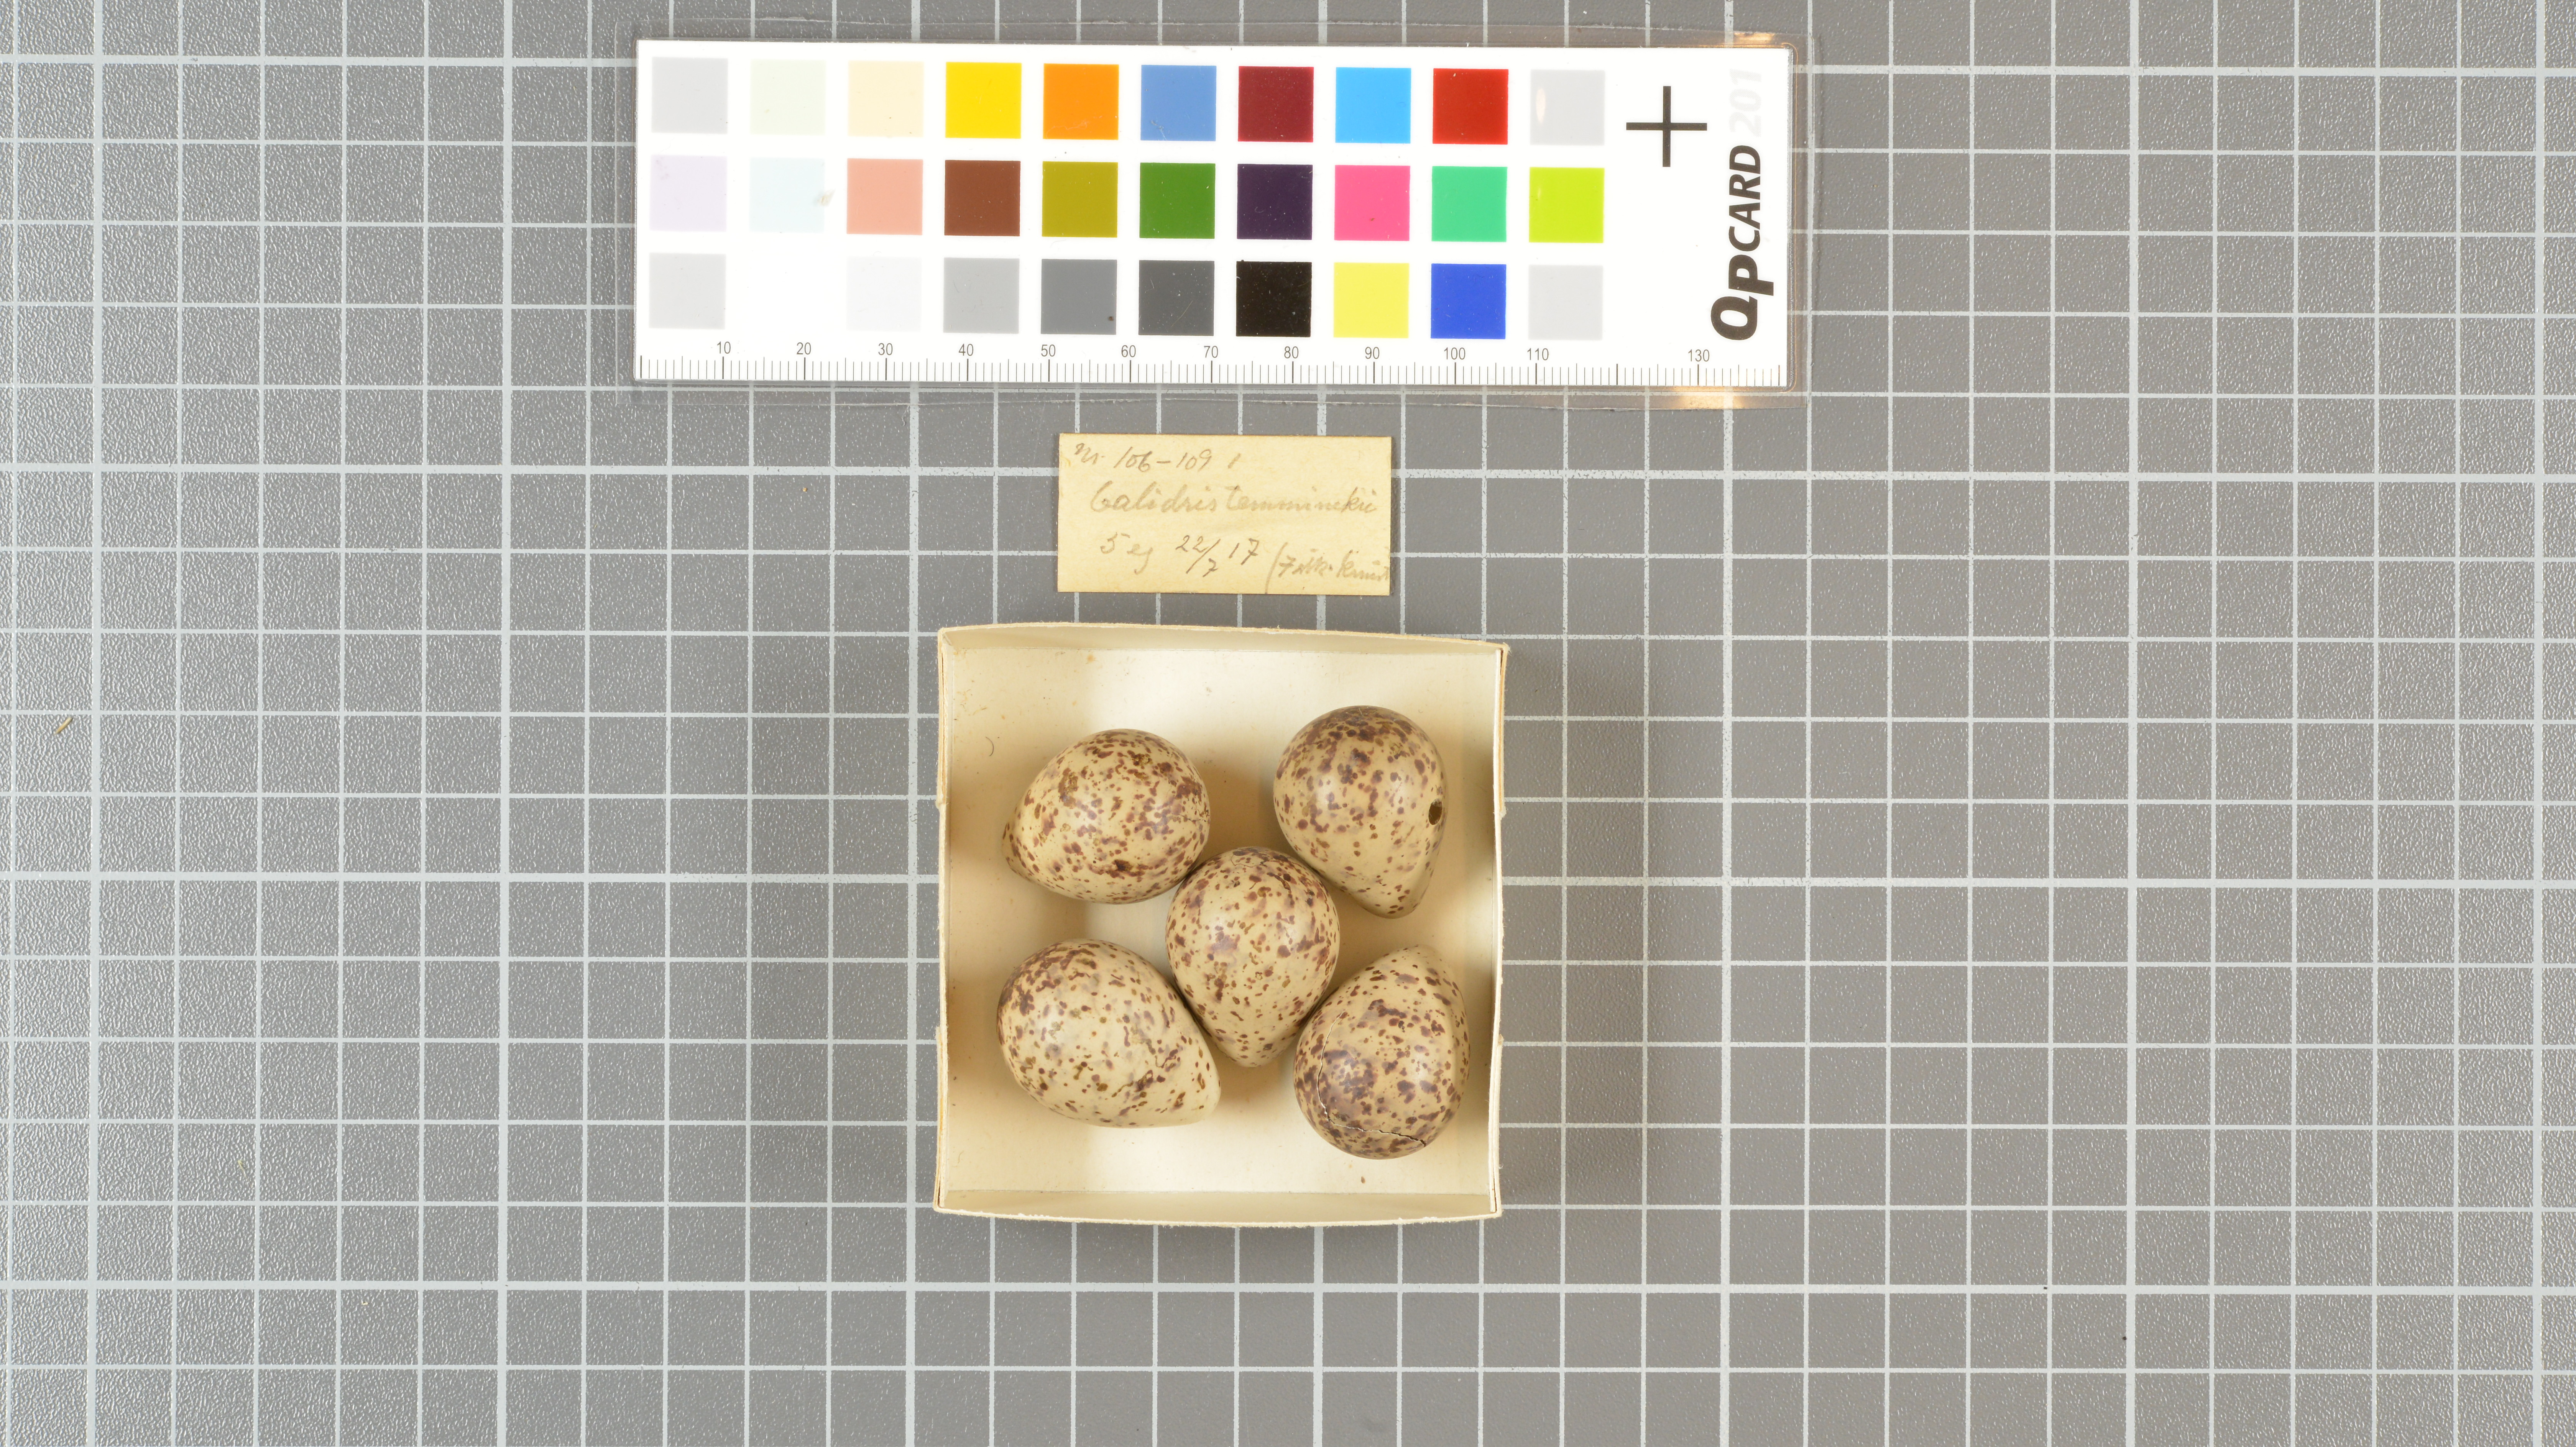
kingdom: Animalia
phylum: Chordata
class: Aves
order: Charadriiformes
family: Scolopacidae
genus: Calidris
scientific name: Calidris temminckii
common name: Temminck's stint
